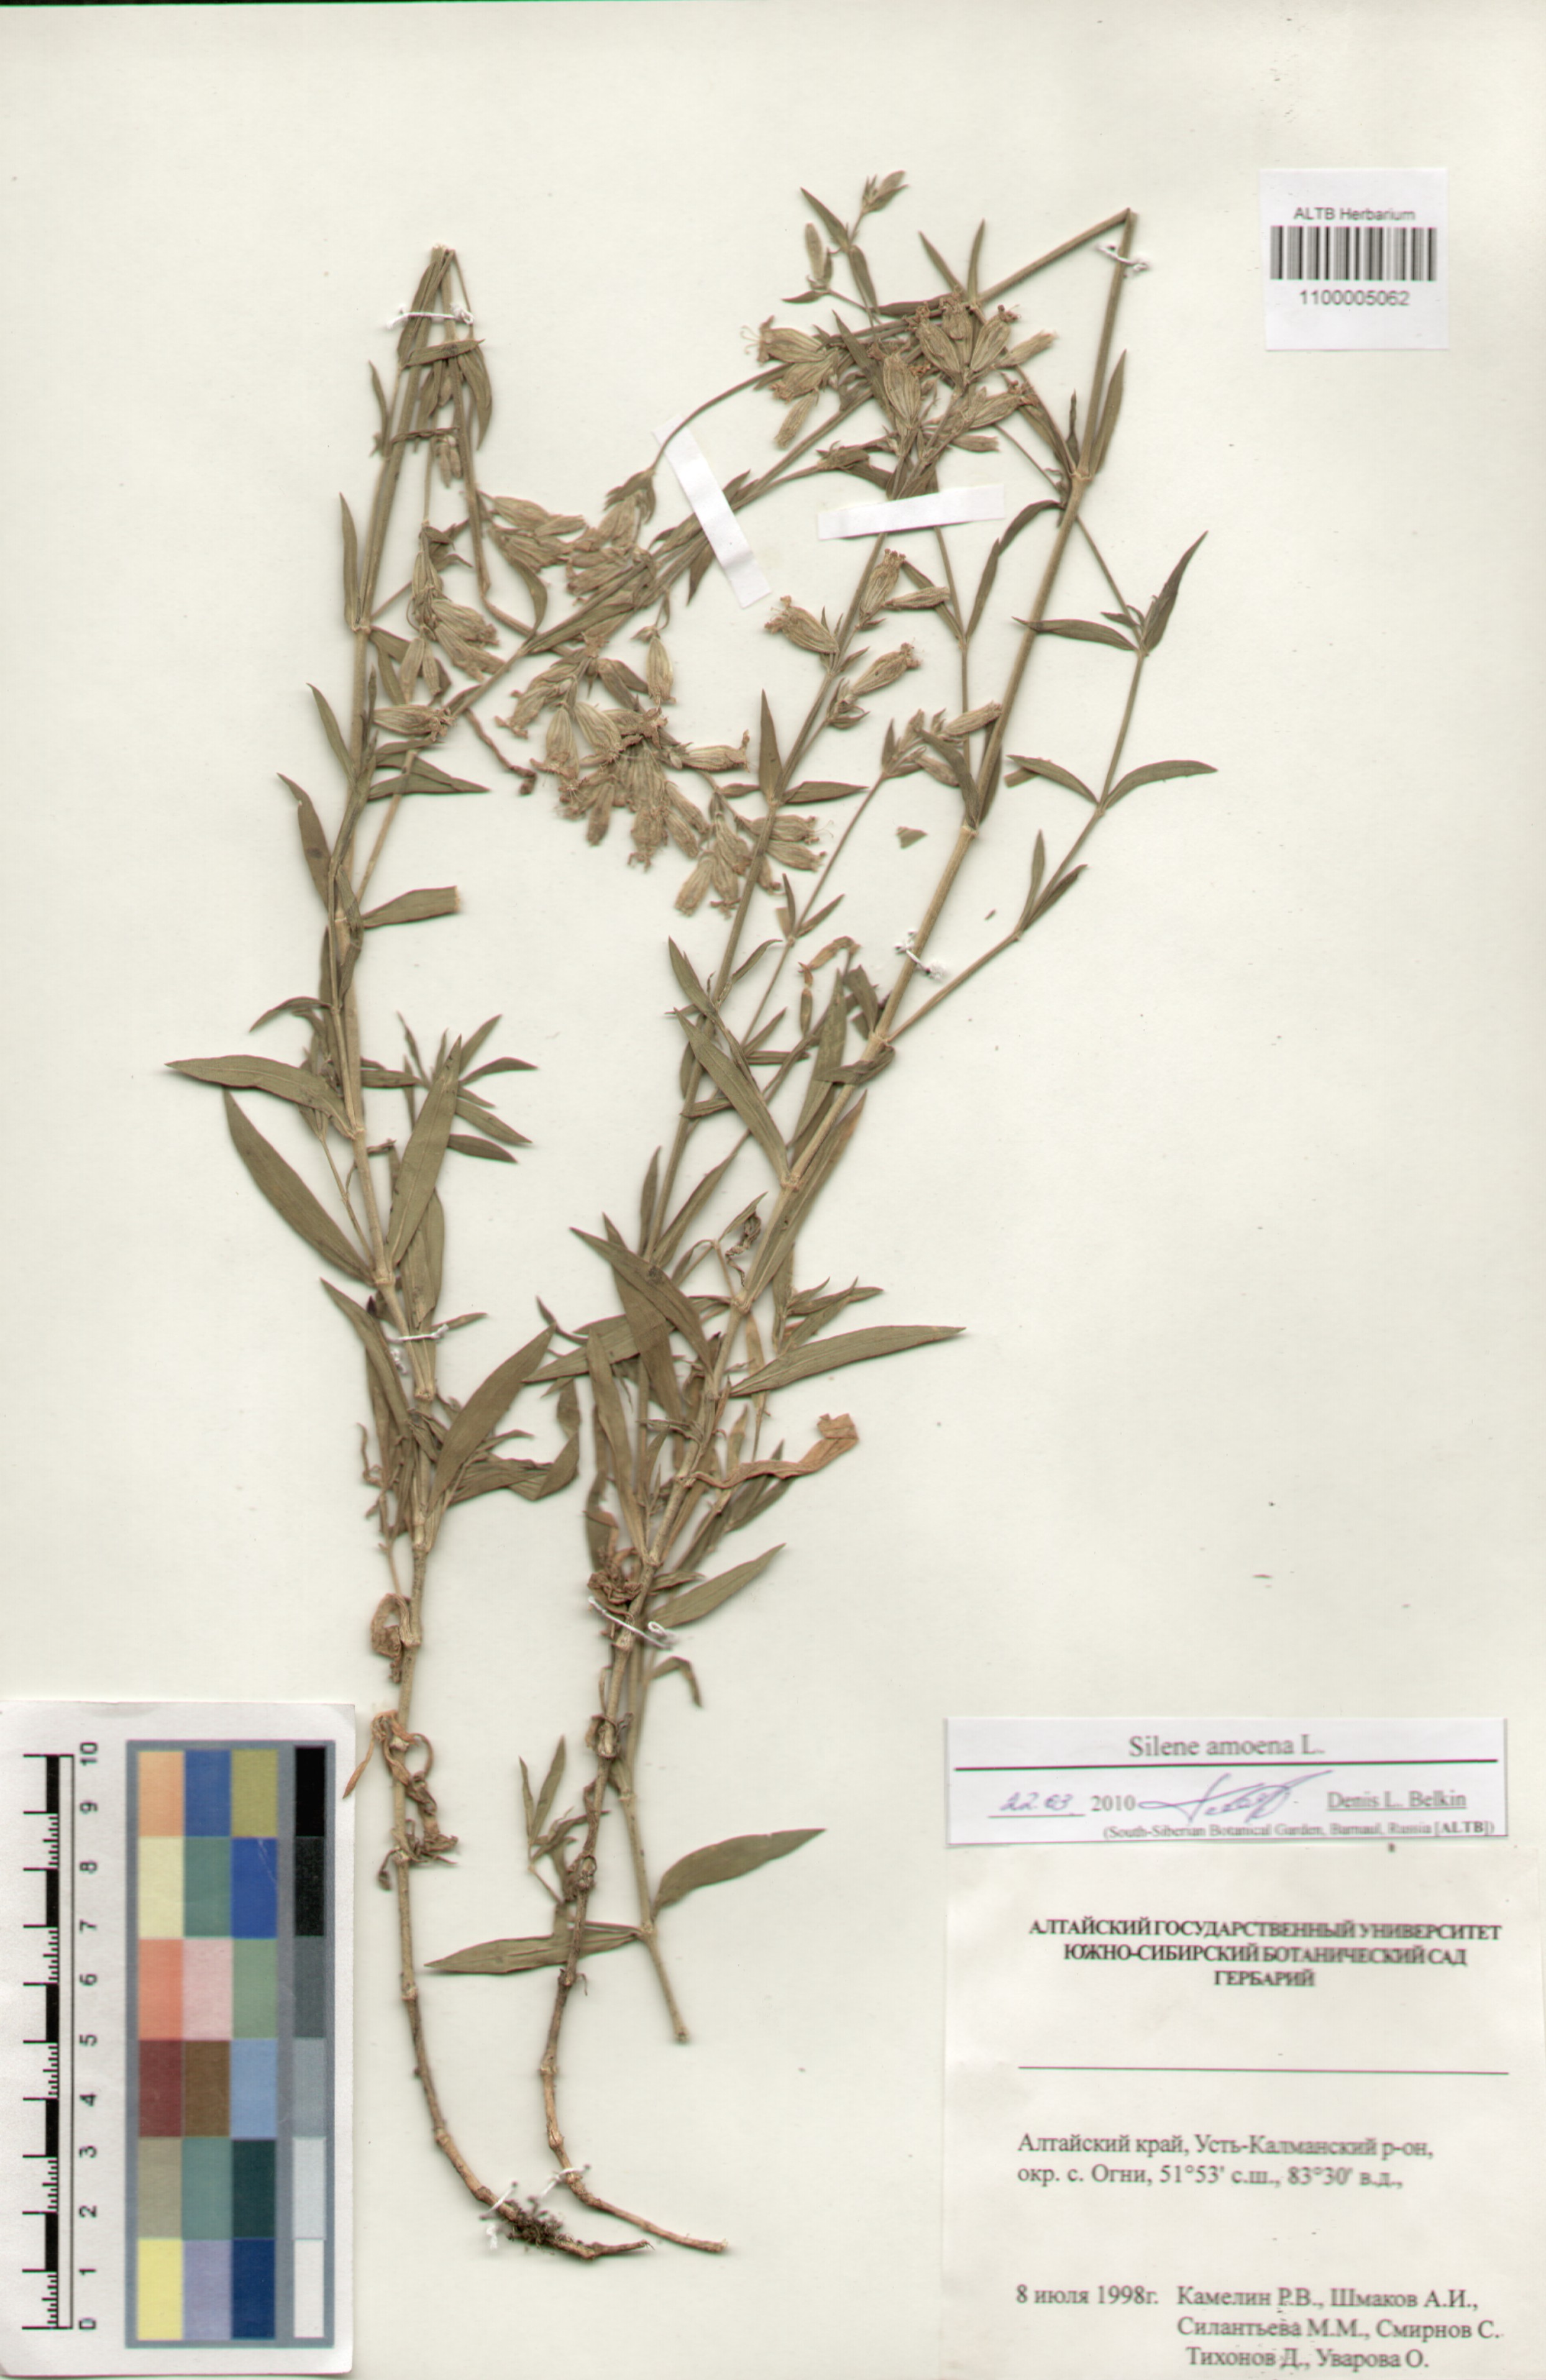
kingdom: Plantae
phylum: Tracheophyta
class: Magnoliopsida
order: Caryophyllales
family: Caryophyllaceae
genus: Silene
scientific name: Silene amoena
